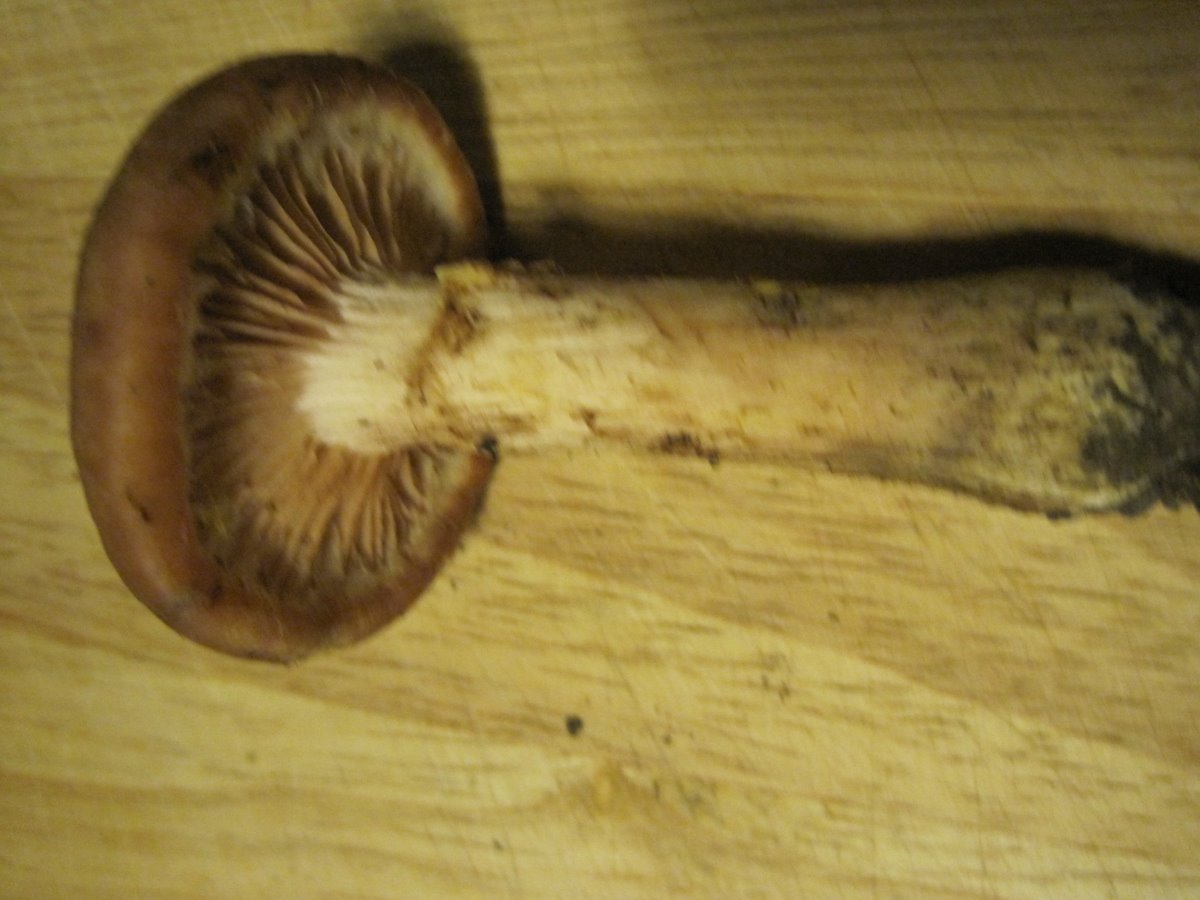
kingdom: Fungi
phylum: Basidiomycota
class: Agaricomycetes
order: Agaricales
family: Physalacriaceae
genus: Armillaria
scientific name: Armillaria lutea
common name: køllestokket honningsvamp
